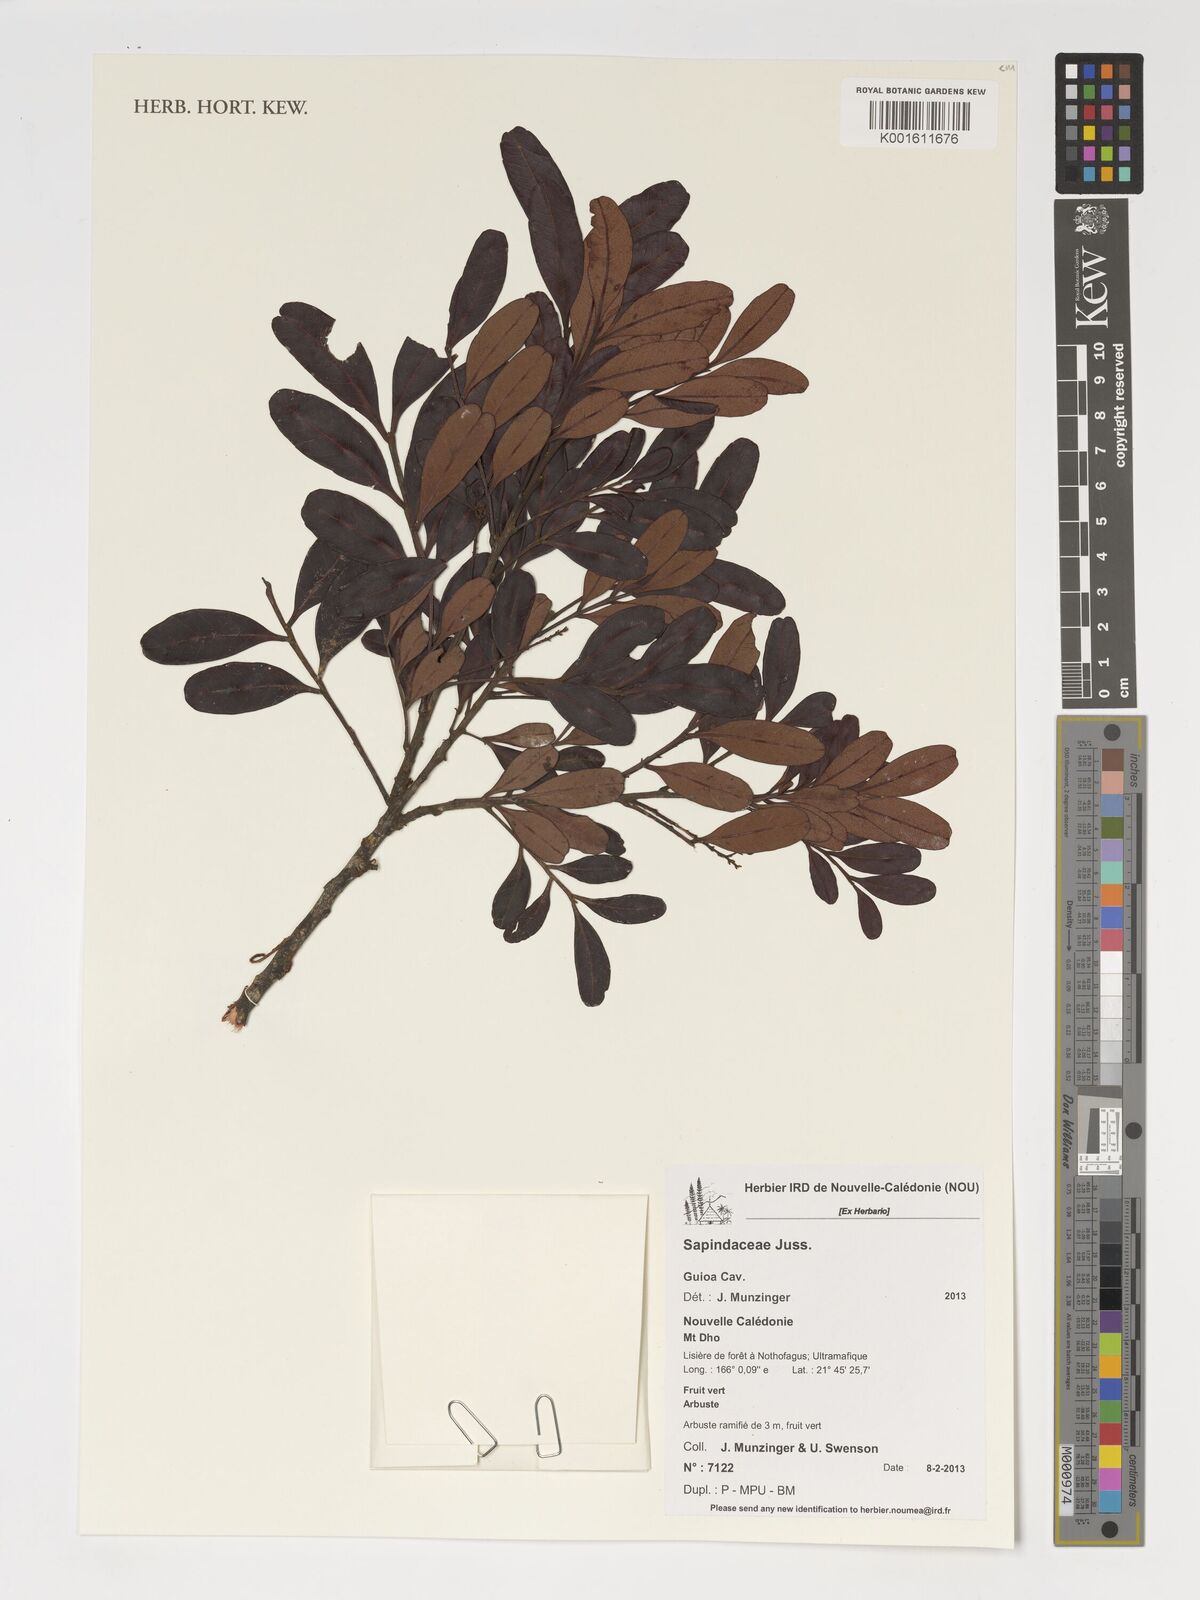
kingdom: Plantae
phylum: Tracheophyta
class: Magnoliopsida
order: Sapindales
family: Sapindaceae
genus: Guioa
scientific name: Guioa
